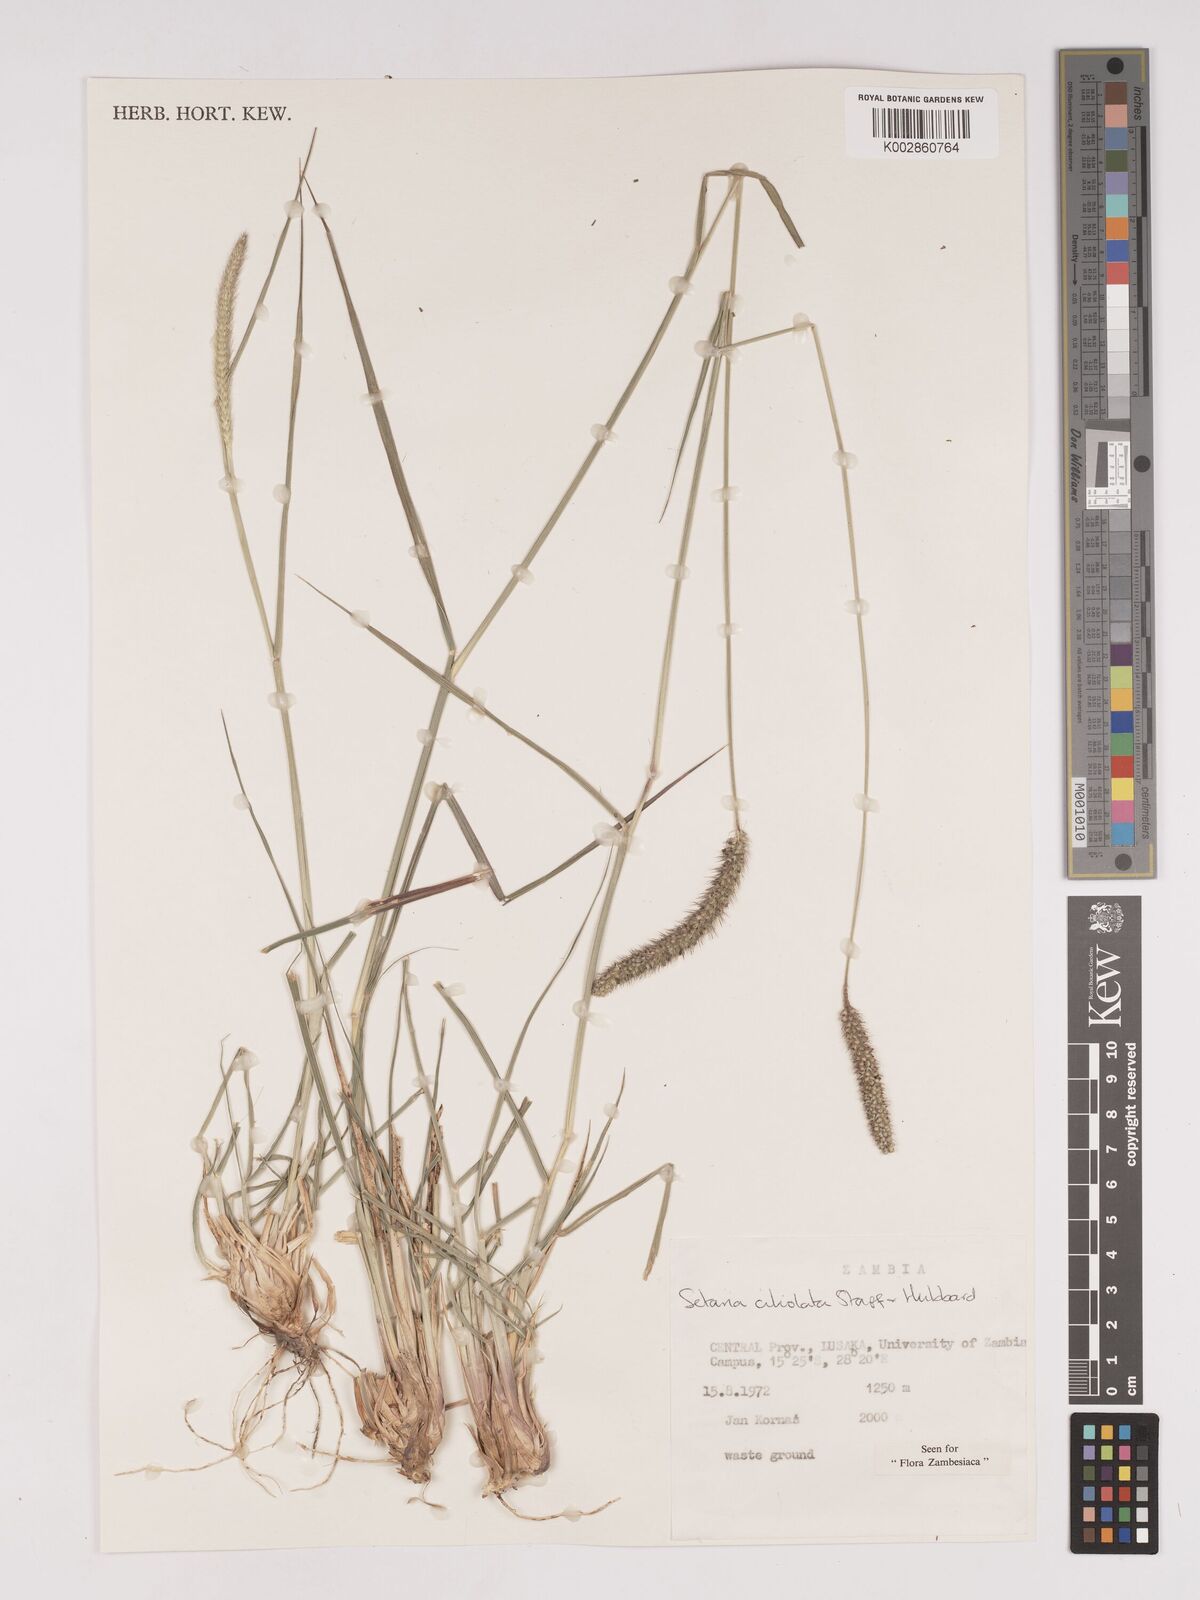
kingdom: Plantae
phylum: Tracheophyta
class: Liliopsida
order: Poales
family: Poaceae
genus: Setaria
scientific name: Setaria incrassata
